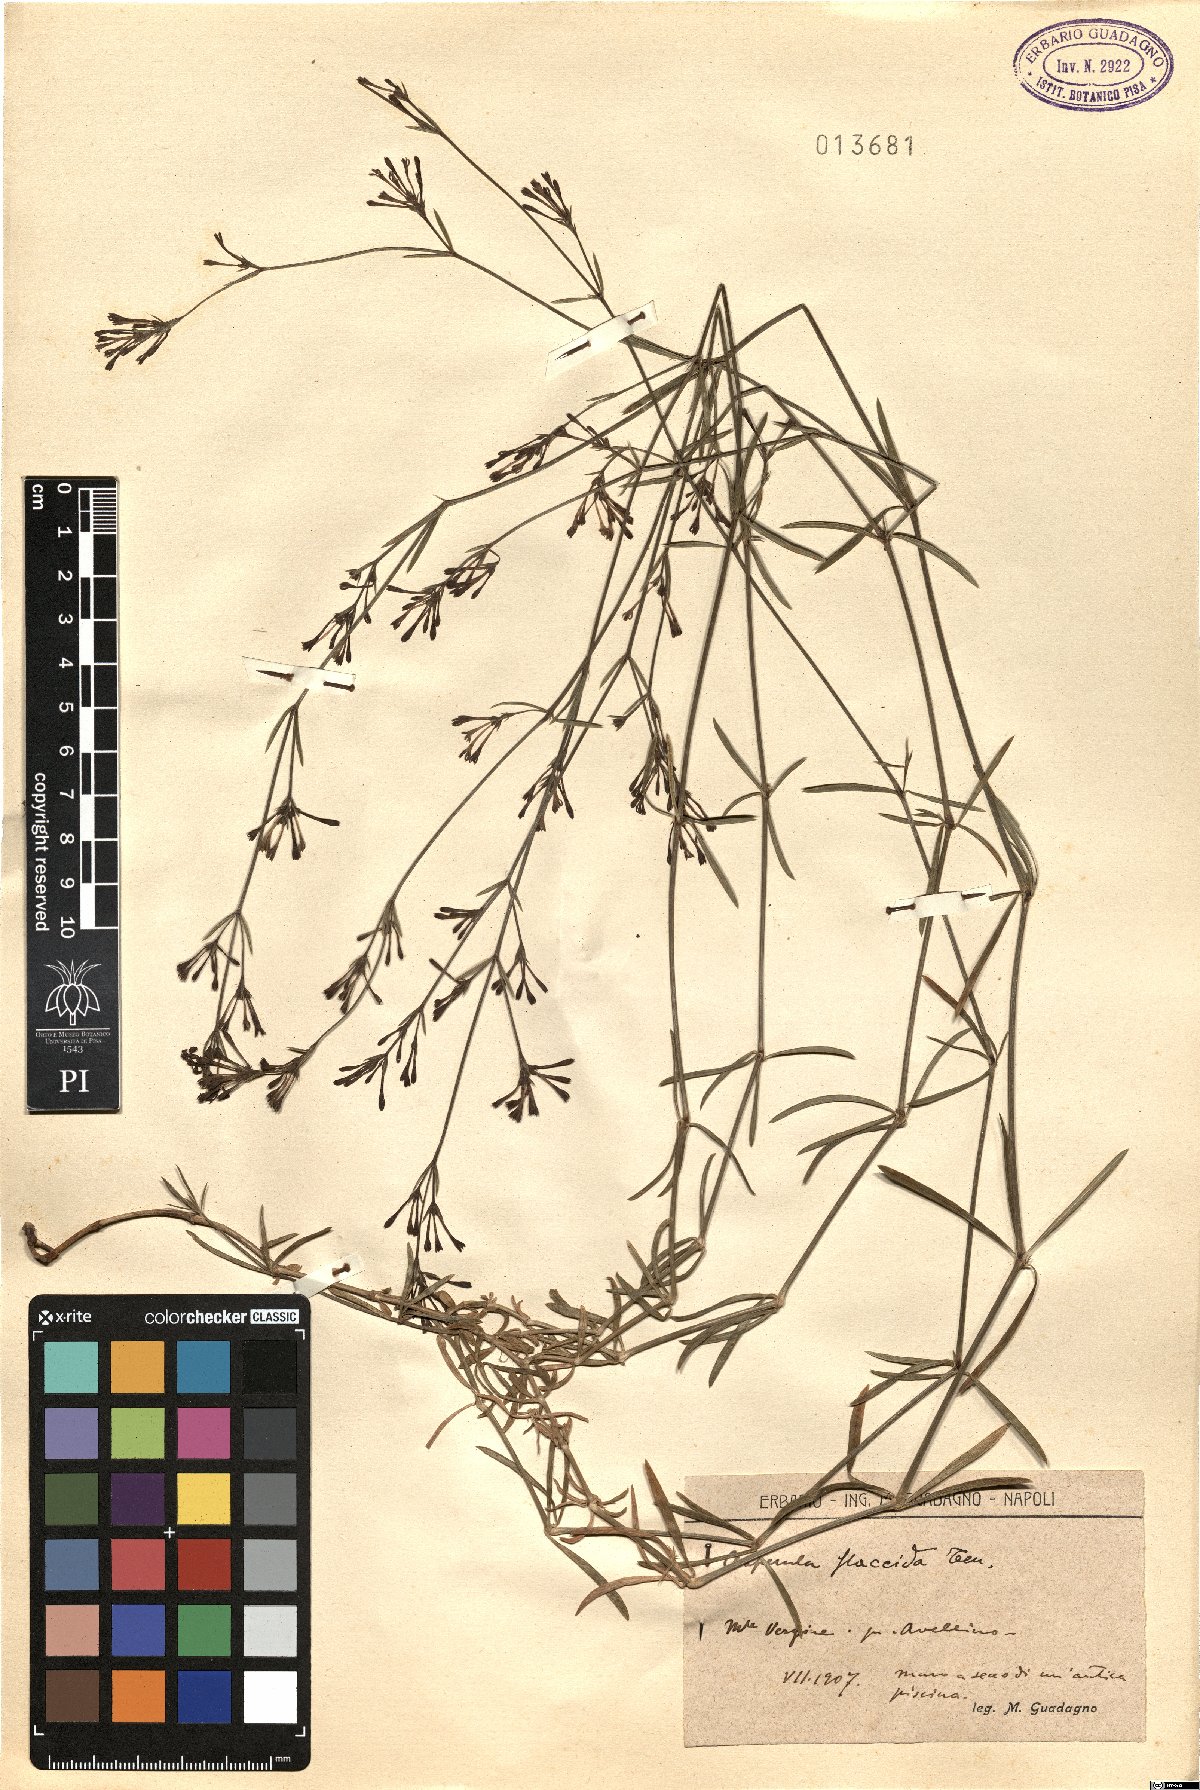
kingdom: Plantae
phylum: Tracheophyta
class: Magnoliopsida
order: Gentianales
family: Rubiaceae
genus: Cynanchica
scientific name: Cynanchica aristata
